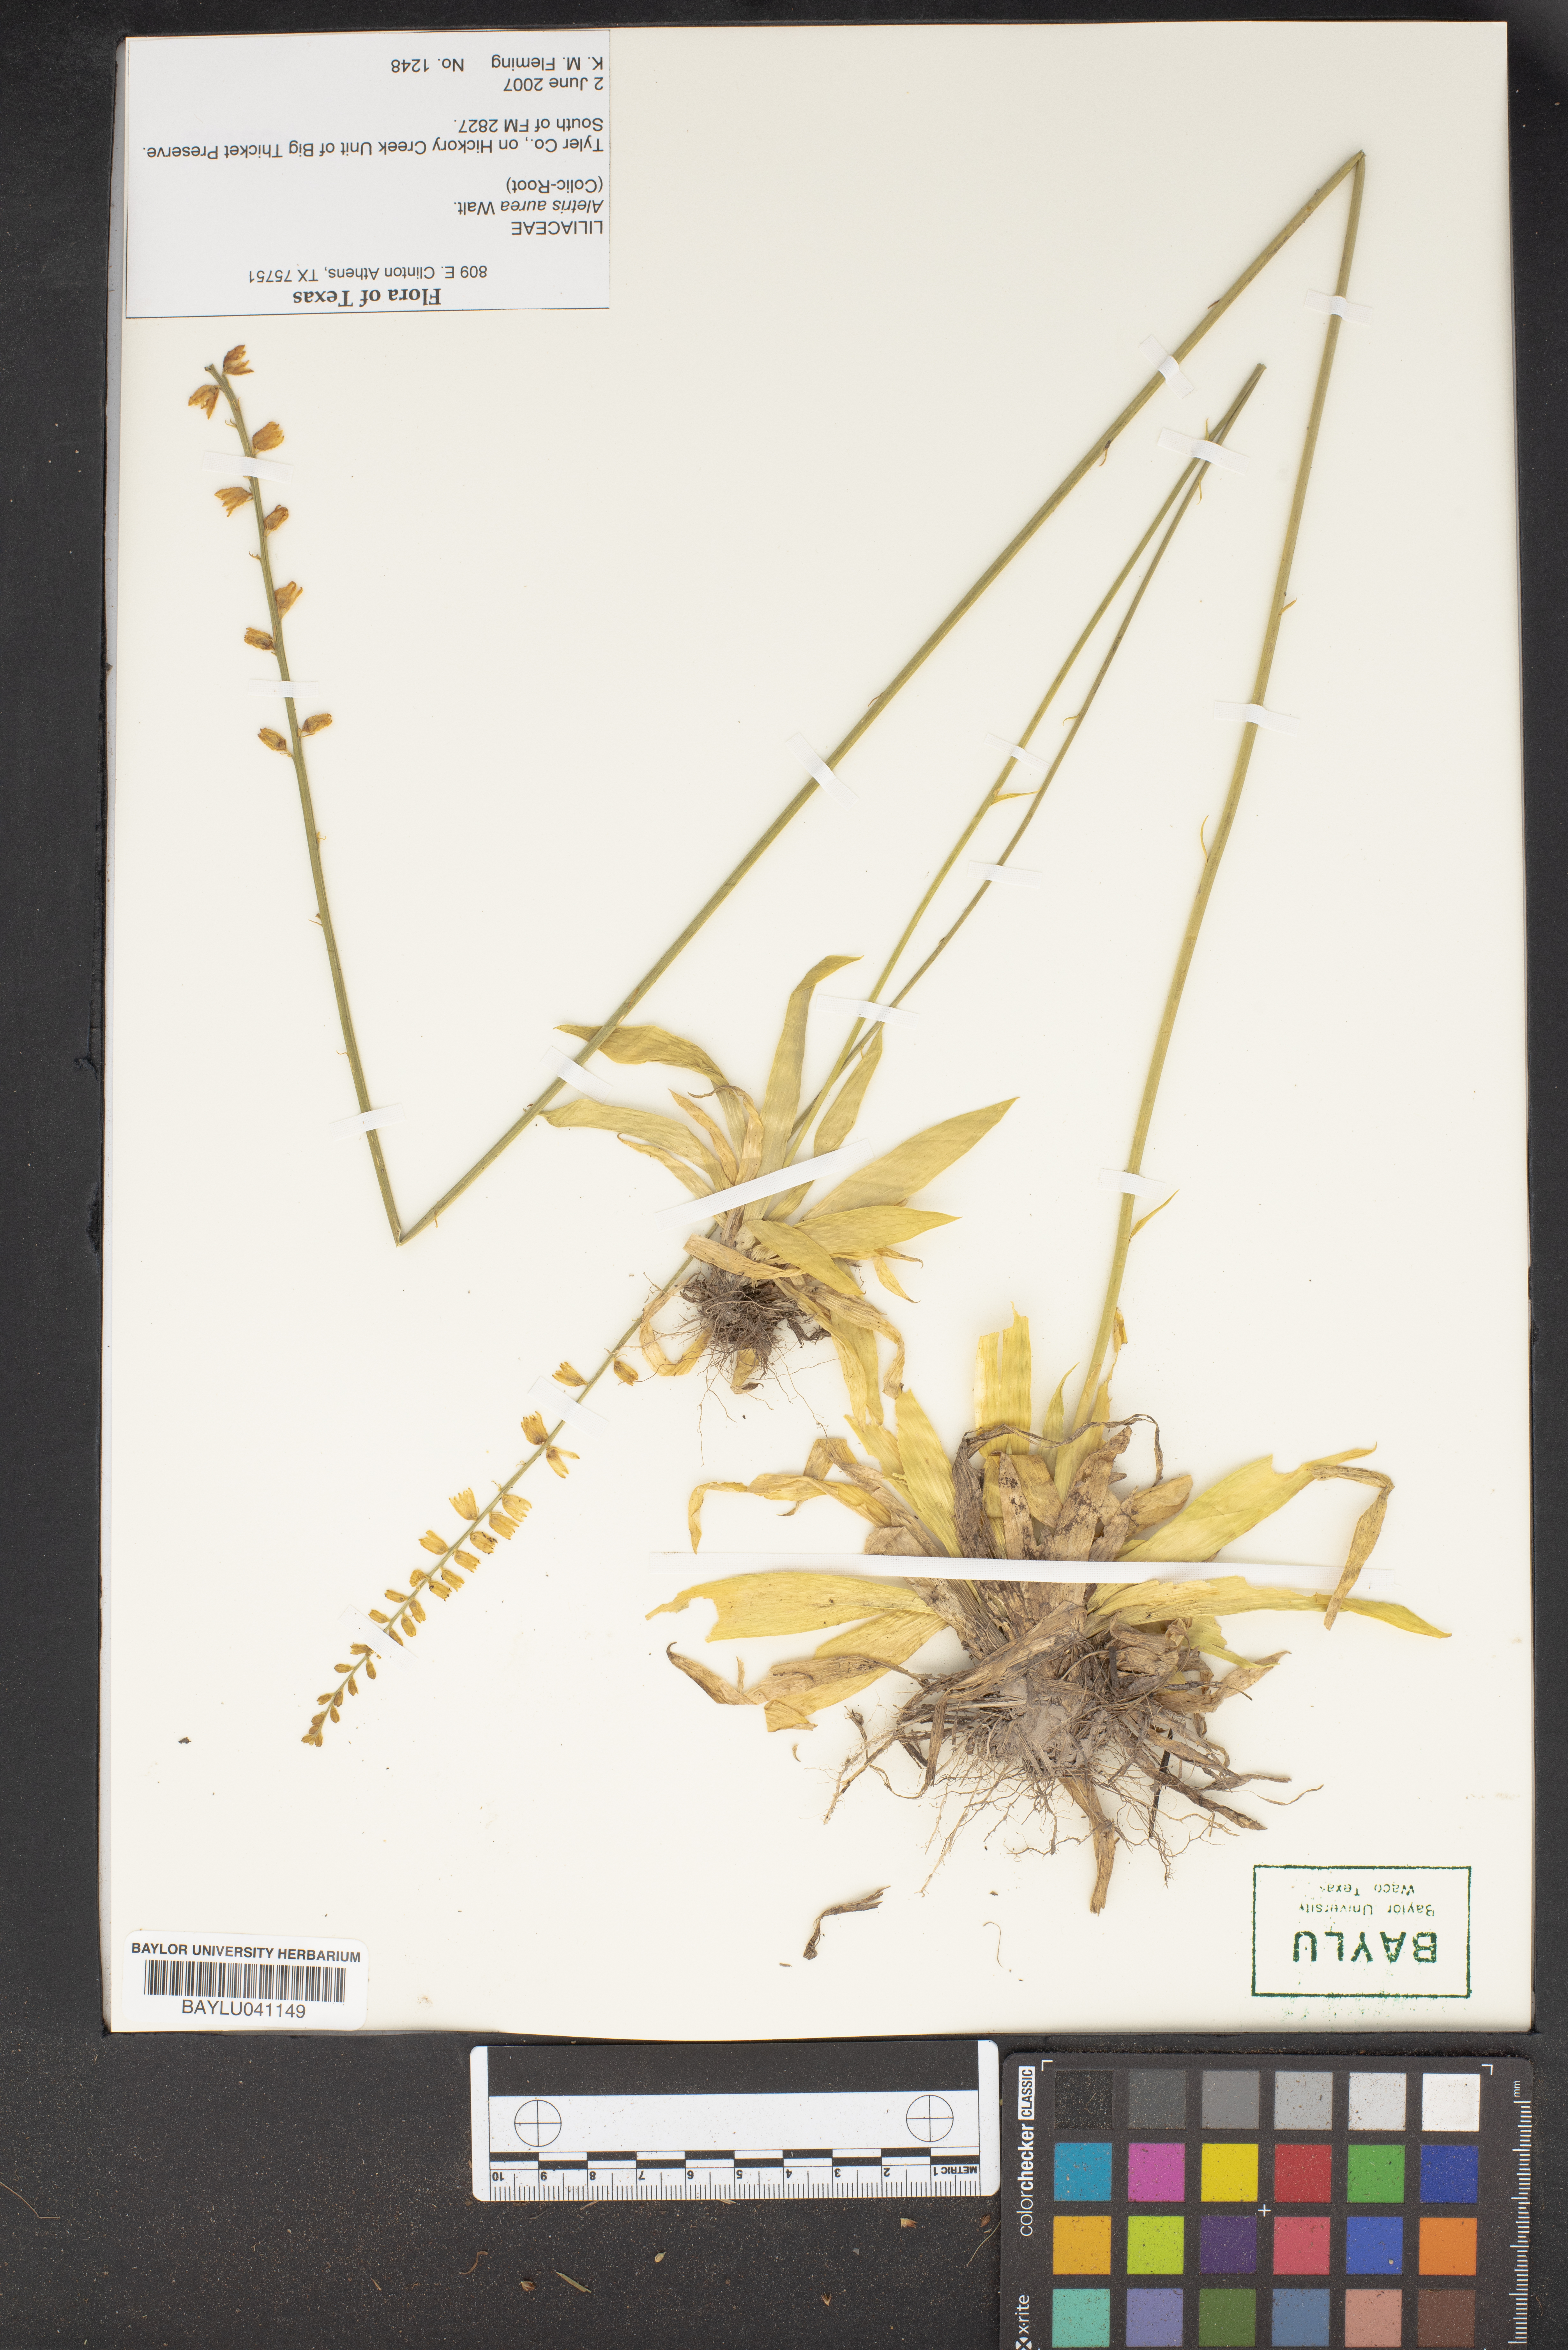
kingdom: Plantae
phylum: Tracheophyta
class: Liliopsida
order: Dioscoreales
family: Nartheciaceae
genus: Aletris
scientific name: Aletris aurea
